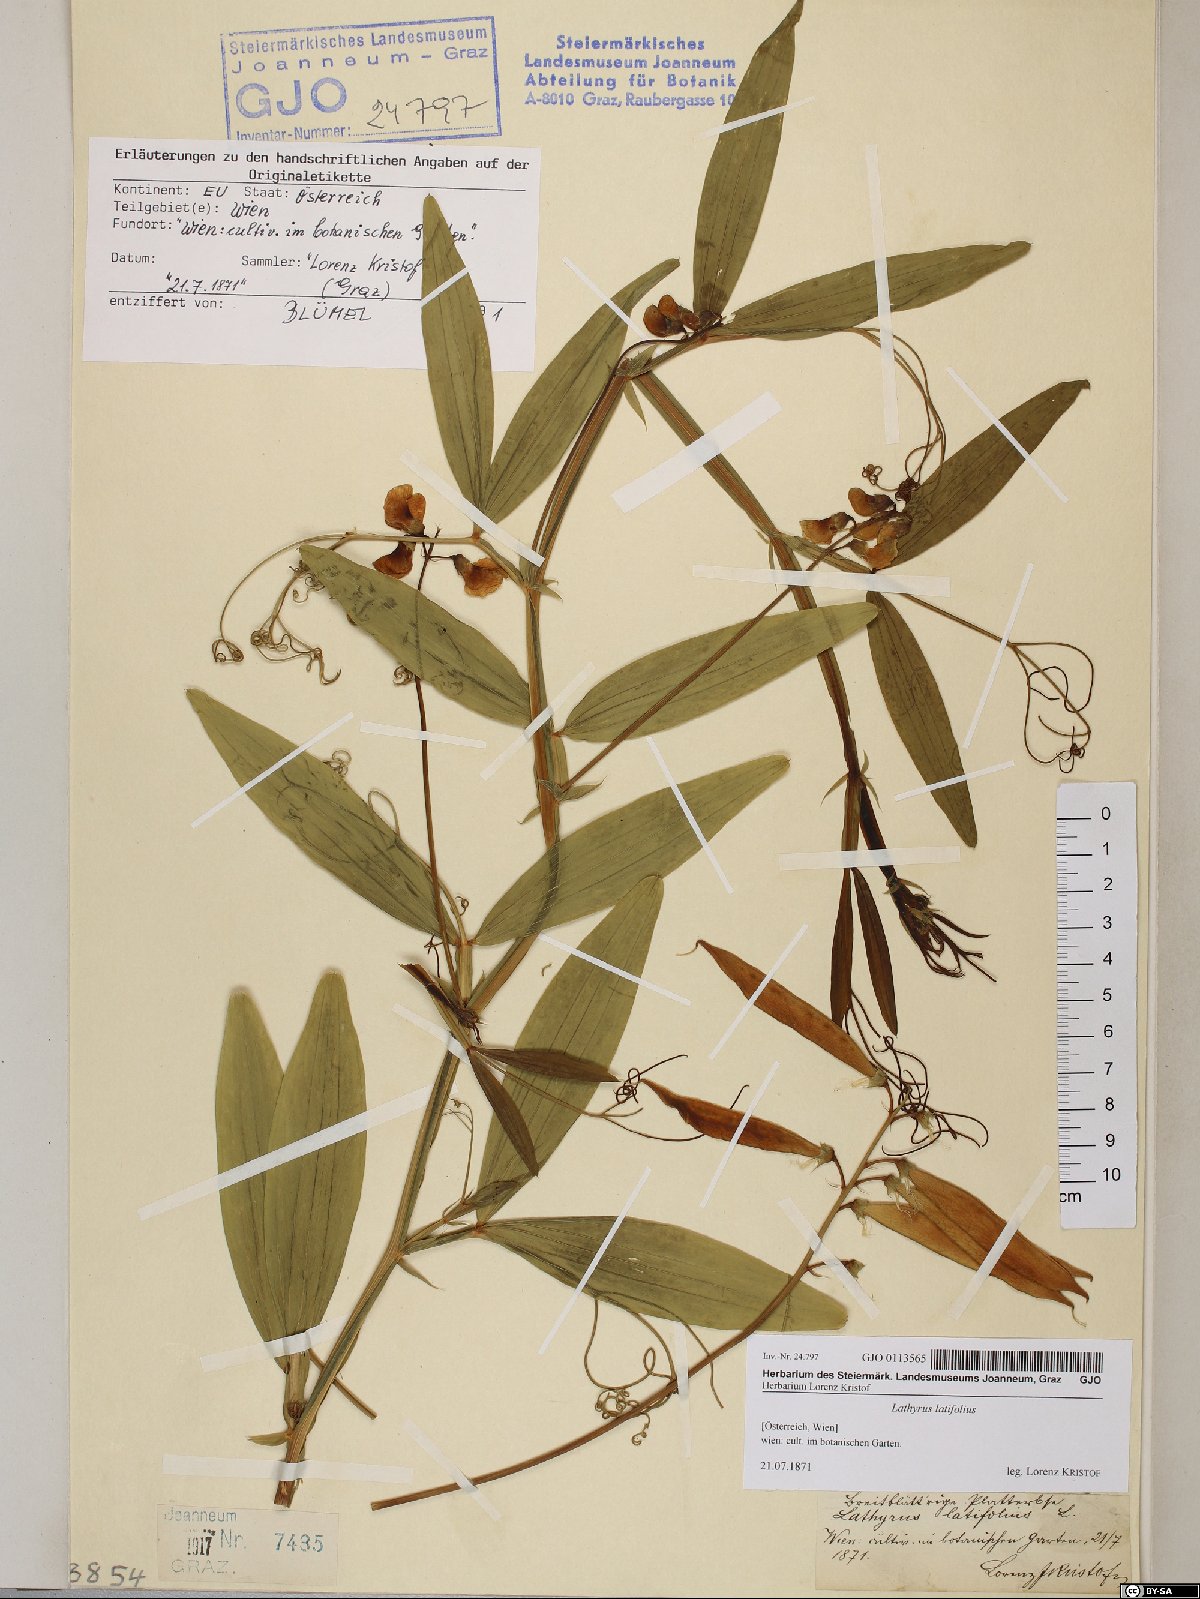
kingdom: Plantae
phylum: Tracheophyta
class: Magnoliopsida
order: Fabales
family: Fabaceae
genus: Lathyrus
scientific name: Lathyrus latifolius
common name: Perennial pea
